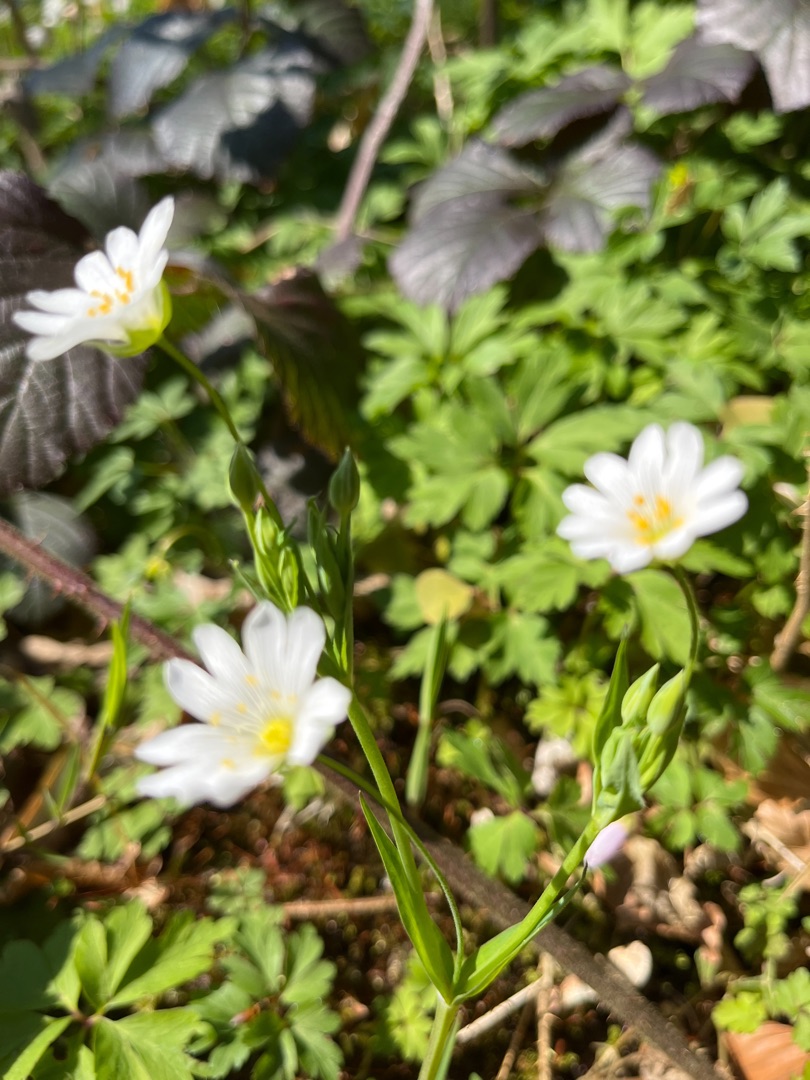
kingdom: Plantae
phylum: Tracheophyta
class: Magnoliopsida
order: Caryophyllales
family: Caryophyllaceae
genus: Rabelera
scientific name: Rabelera holostea
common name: Stor fladstjerne
